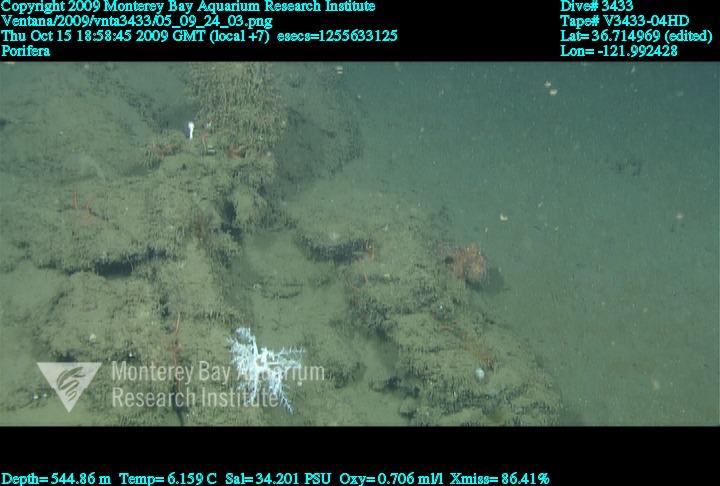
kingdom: Animalia
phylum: Porifera
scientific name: Porifera
